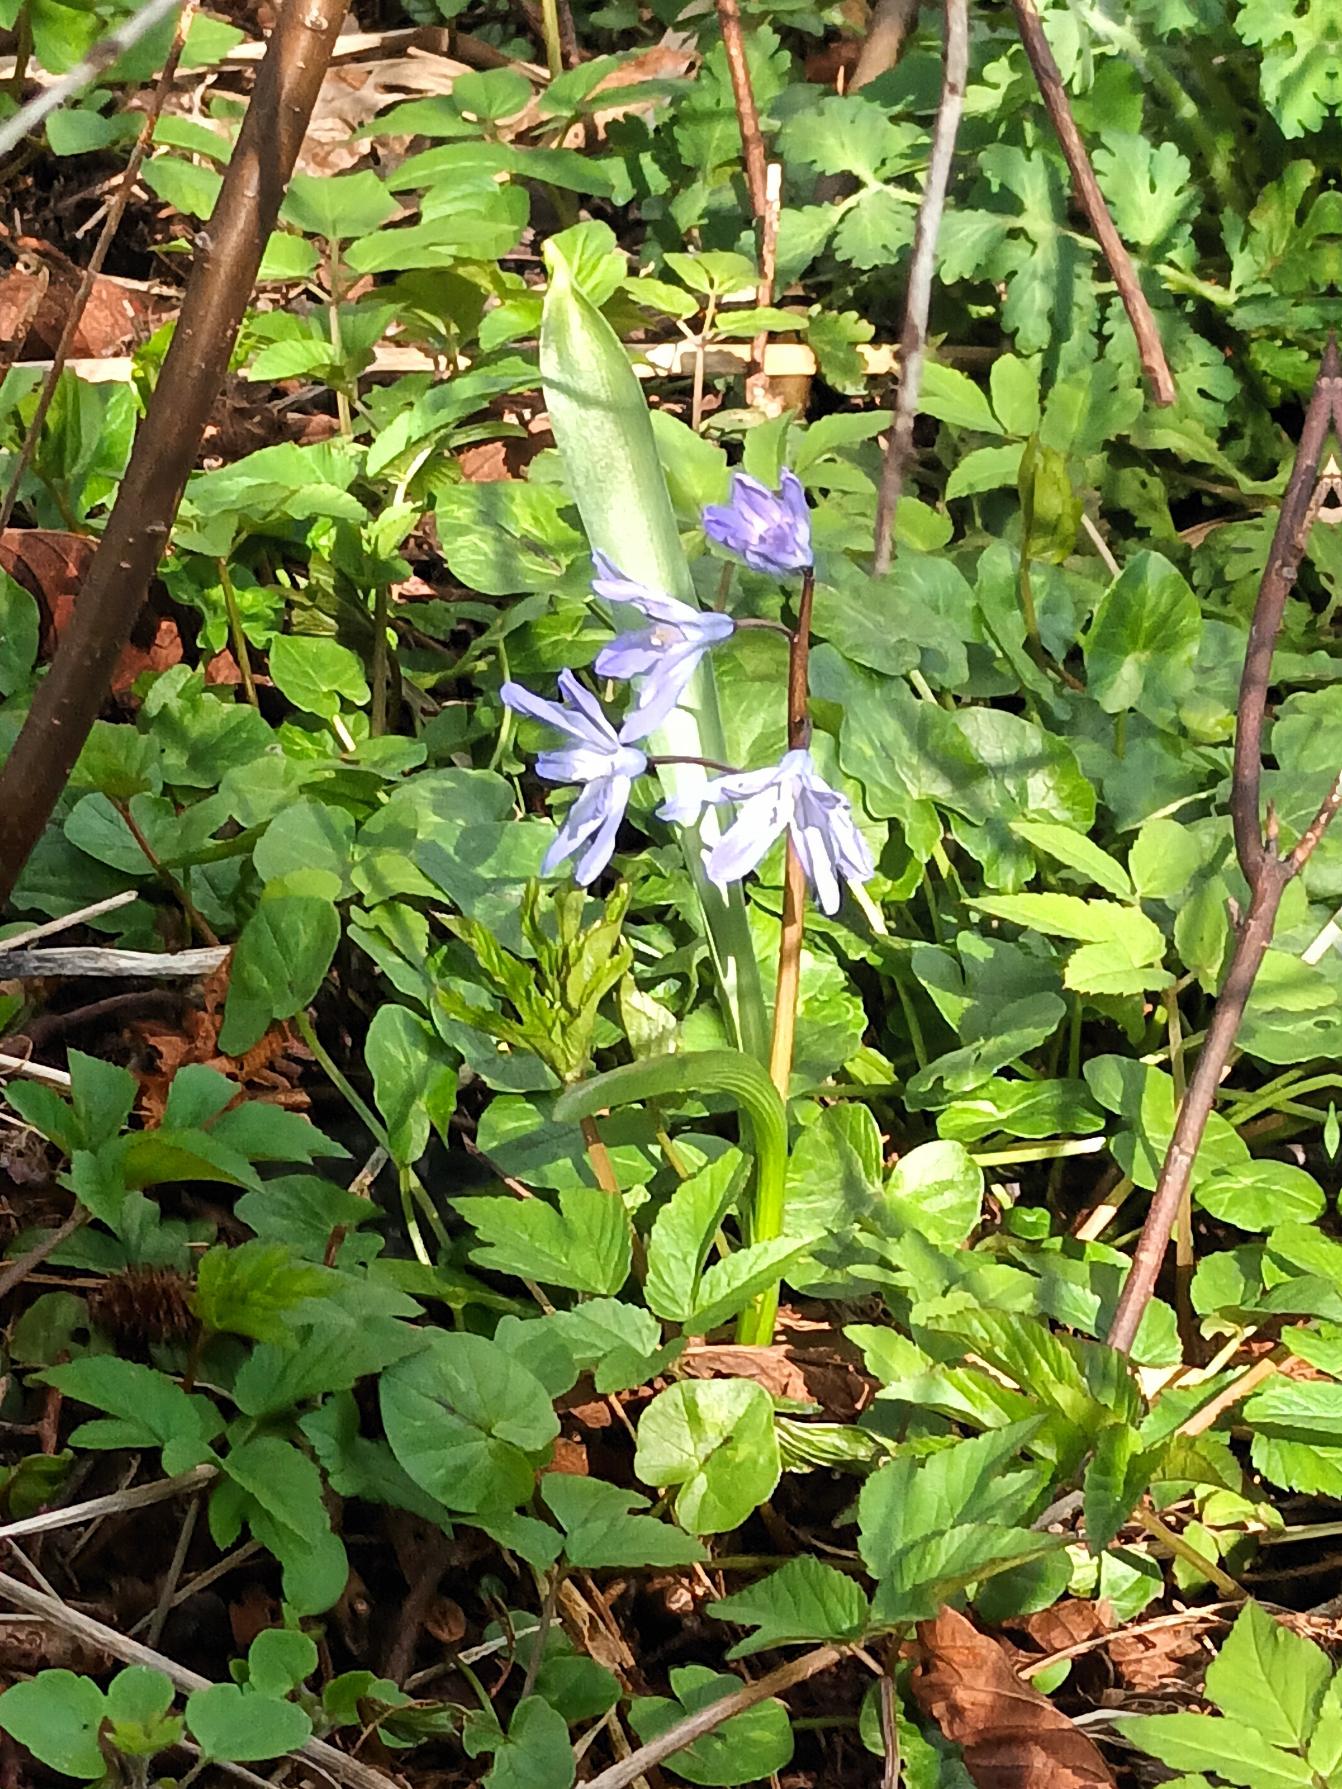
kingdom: Plantae
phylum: Tracheophyta
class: Liliopsida
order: Asparagales
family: Asparagaceae
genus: Scilla
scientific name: Scilla forbesii
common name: Almindelig snepryd
